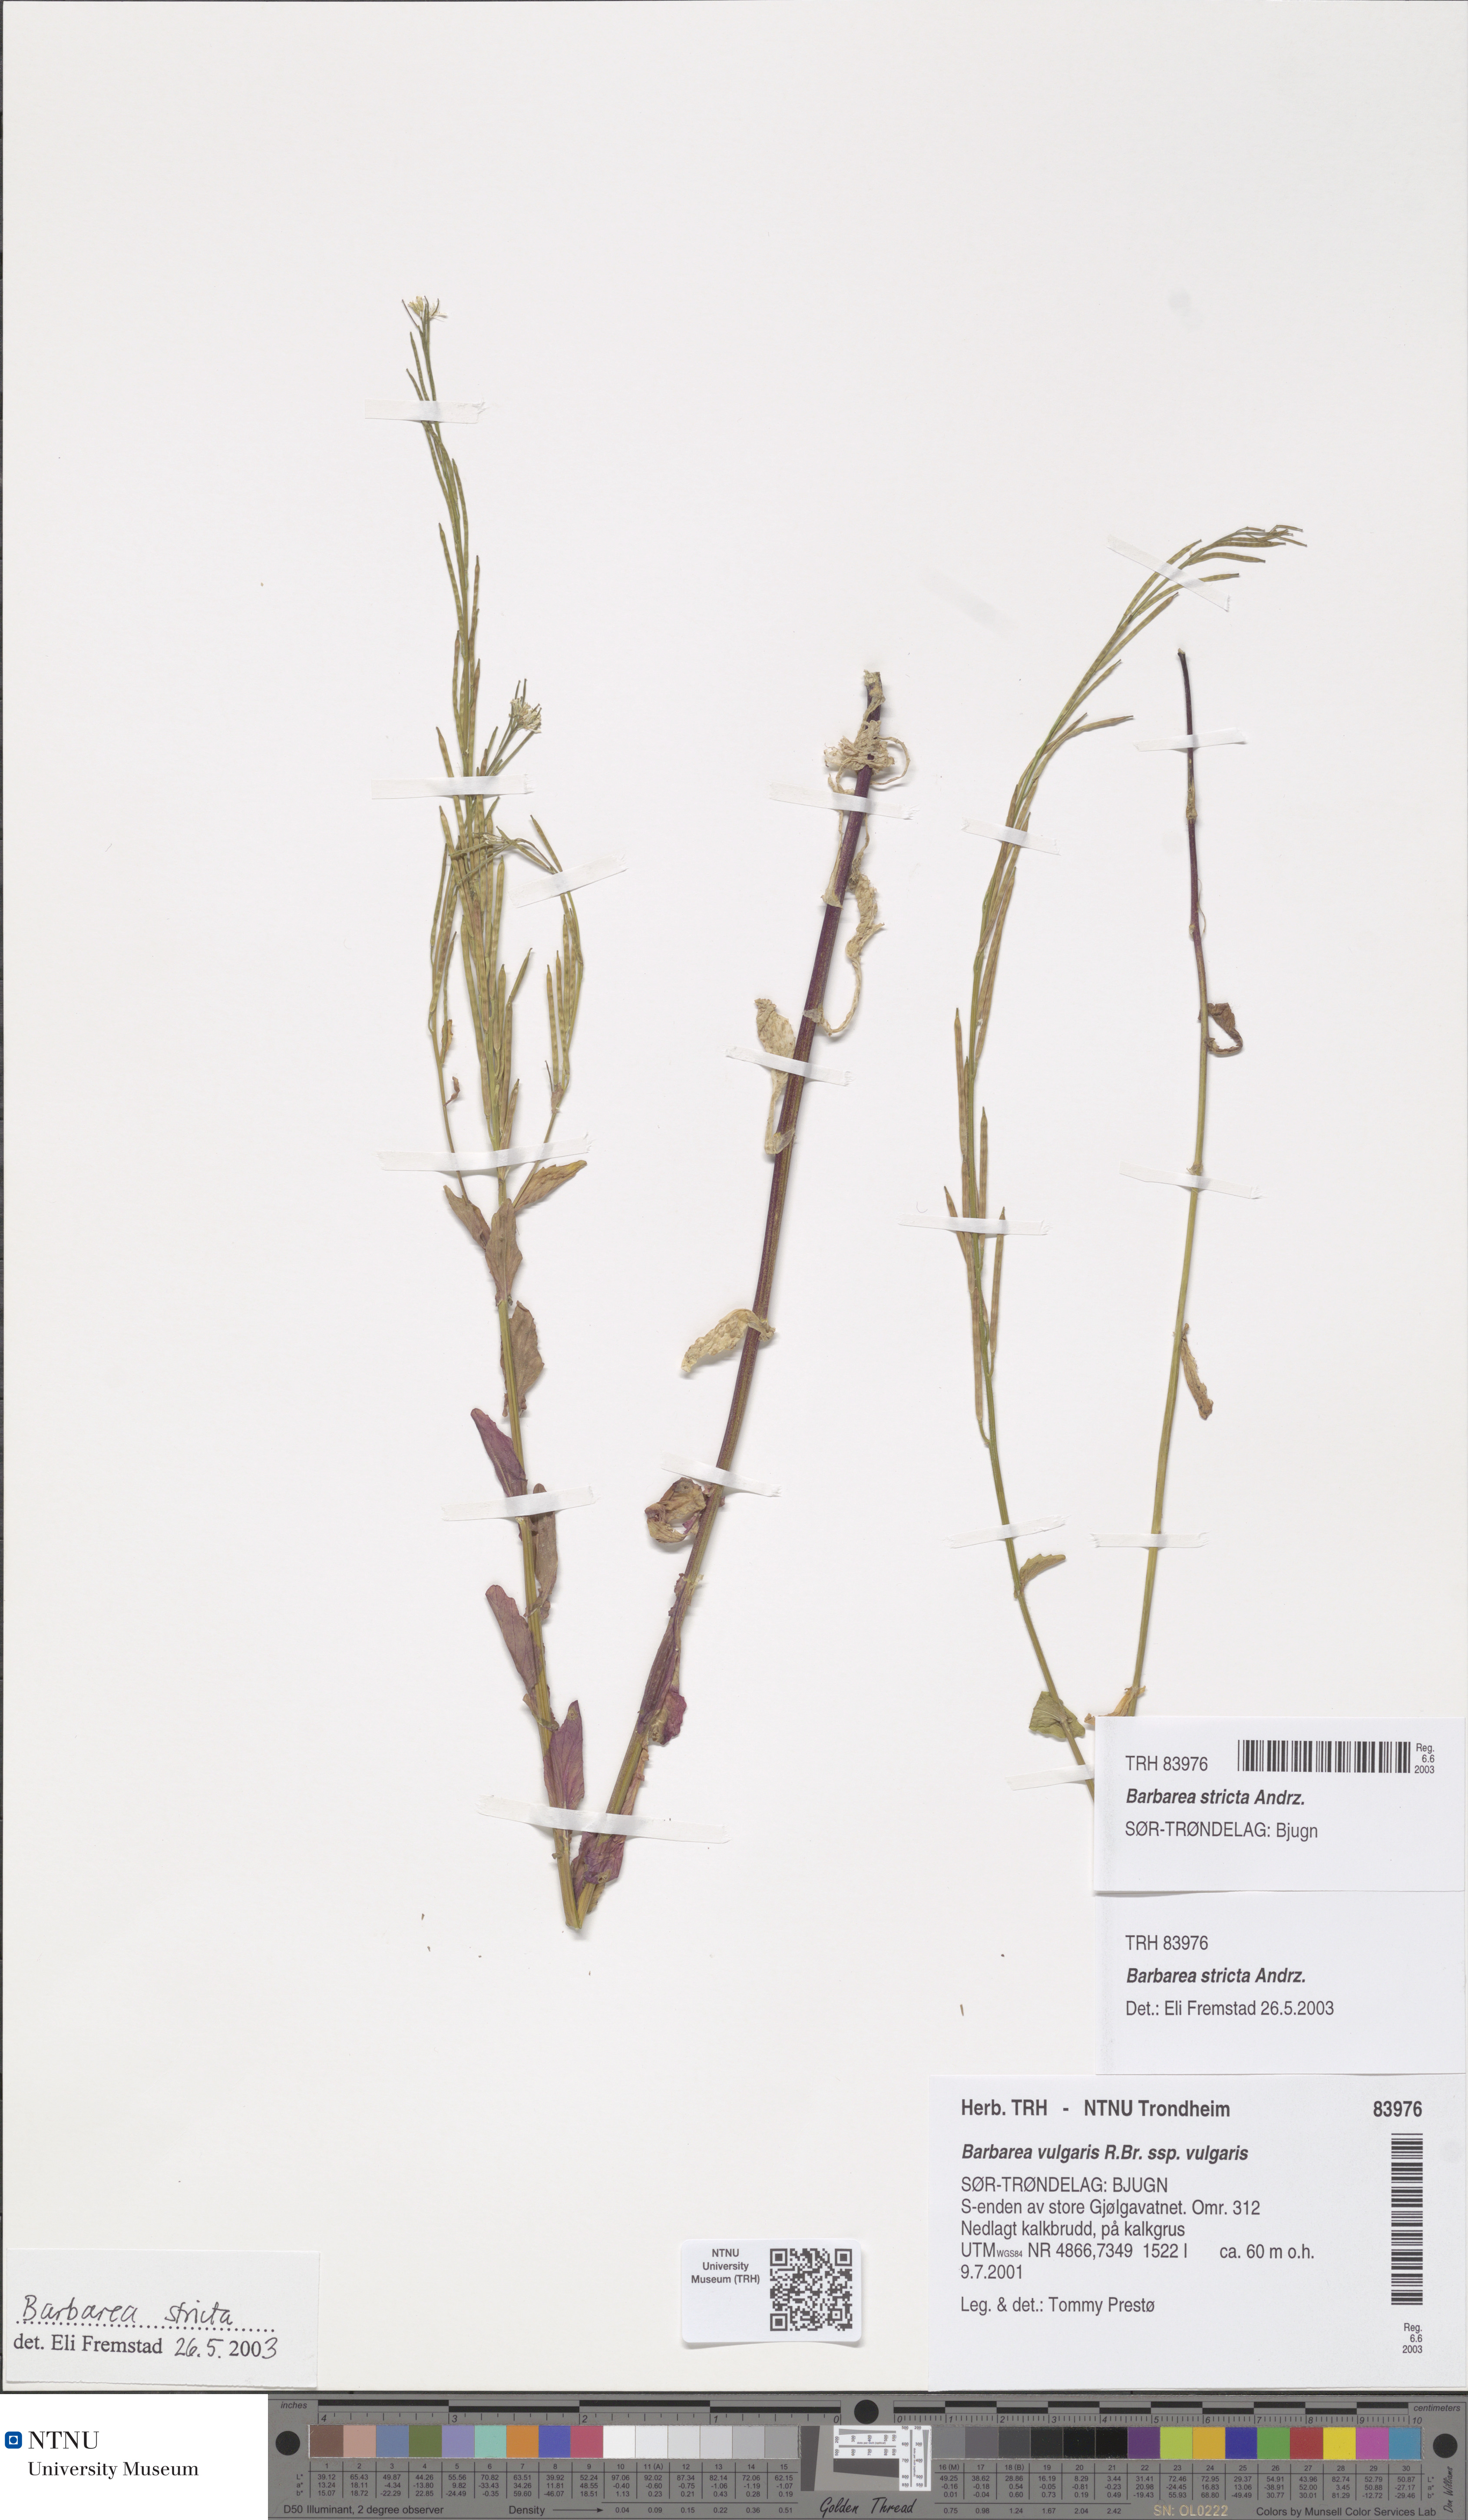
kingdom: Plantae
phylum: Tracheophyta
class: Magnoliopsida
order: Brassicales
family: Brassicaceae
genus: Barbarea
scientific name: Barbarea stricta
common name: Small-flowered winter-cress
